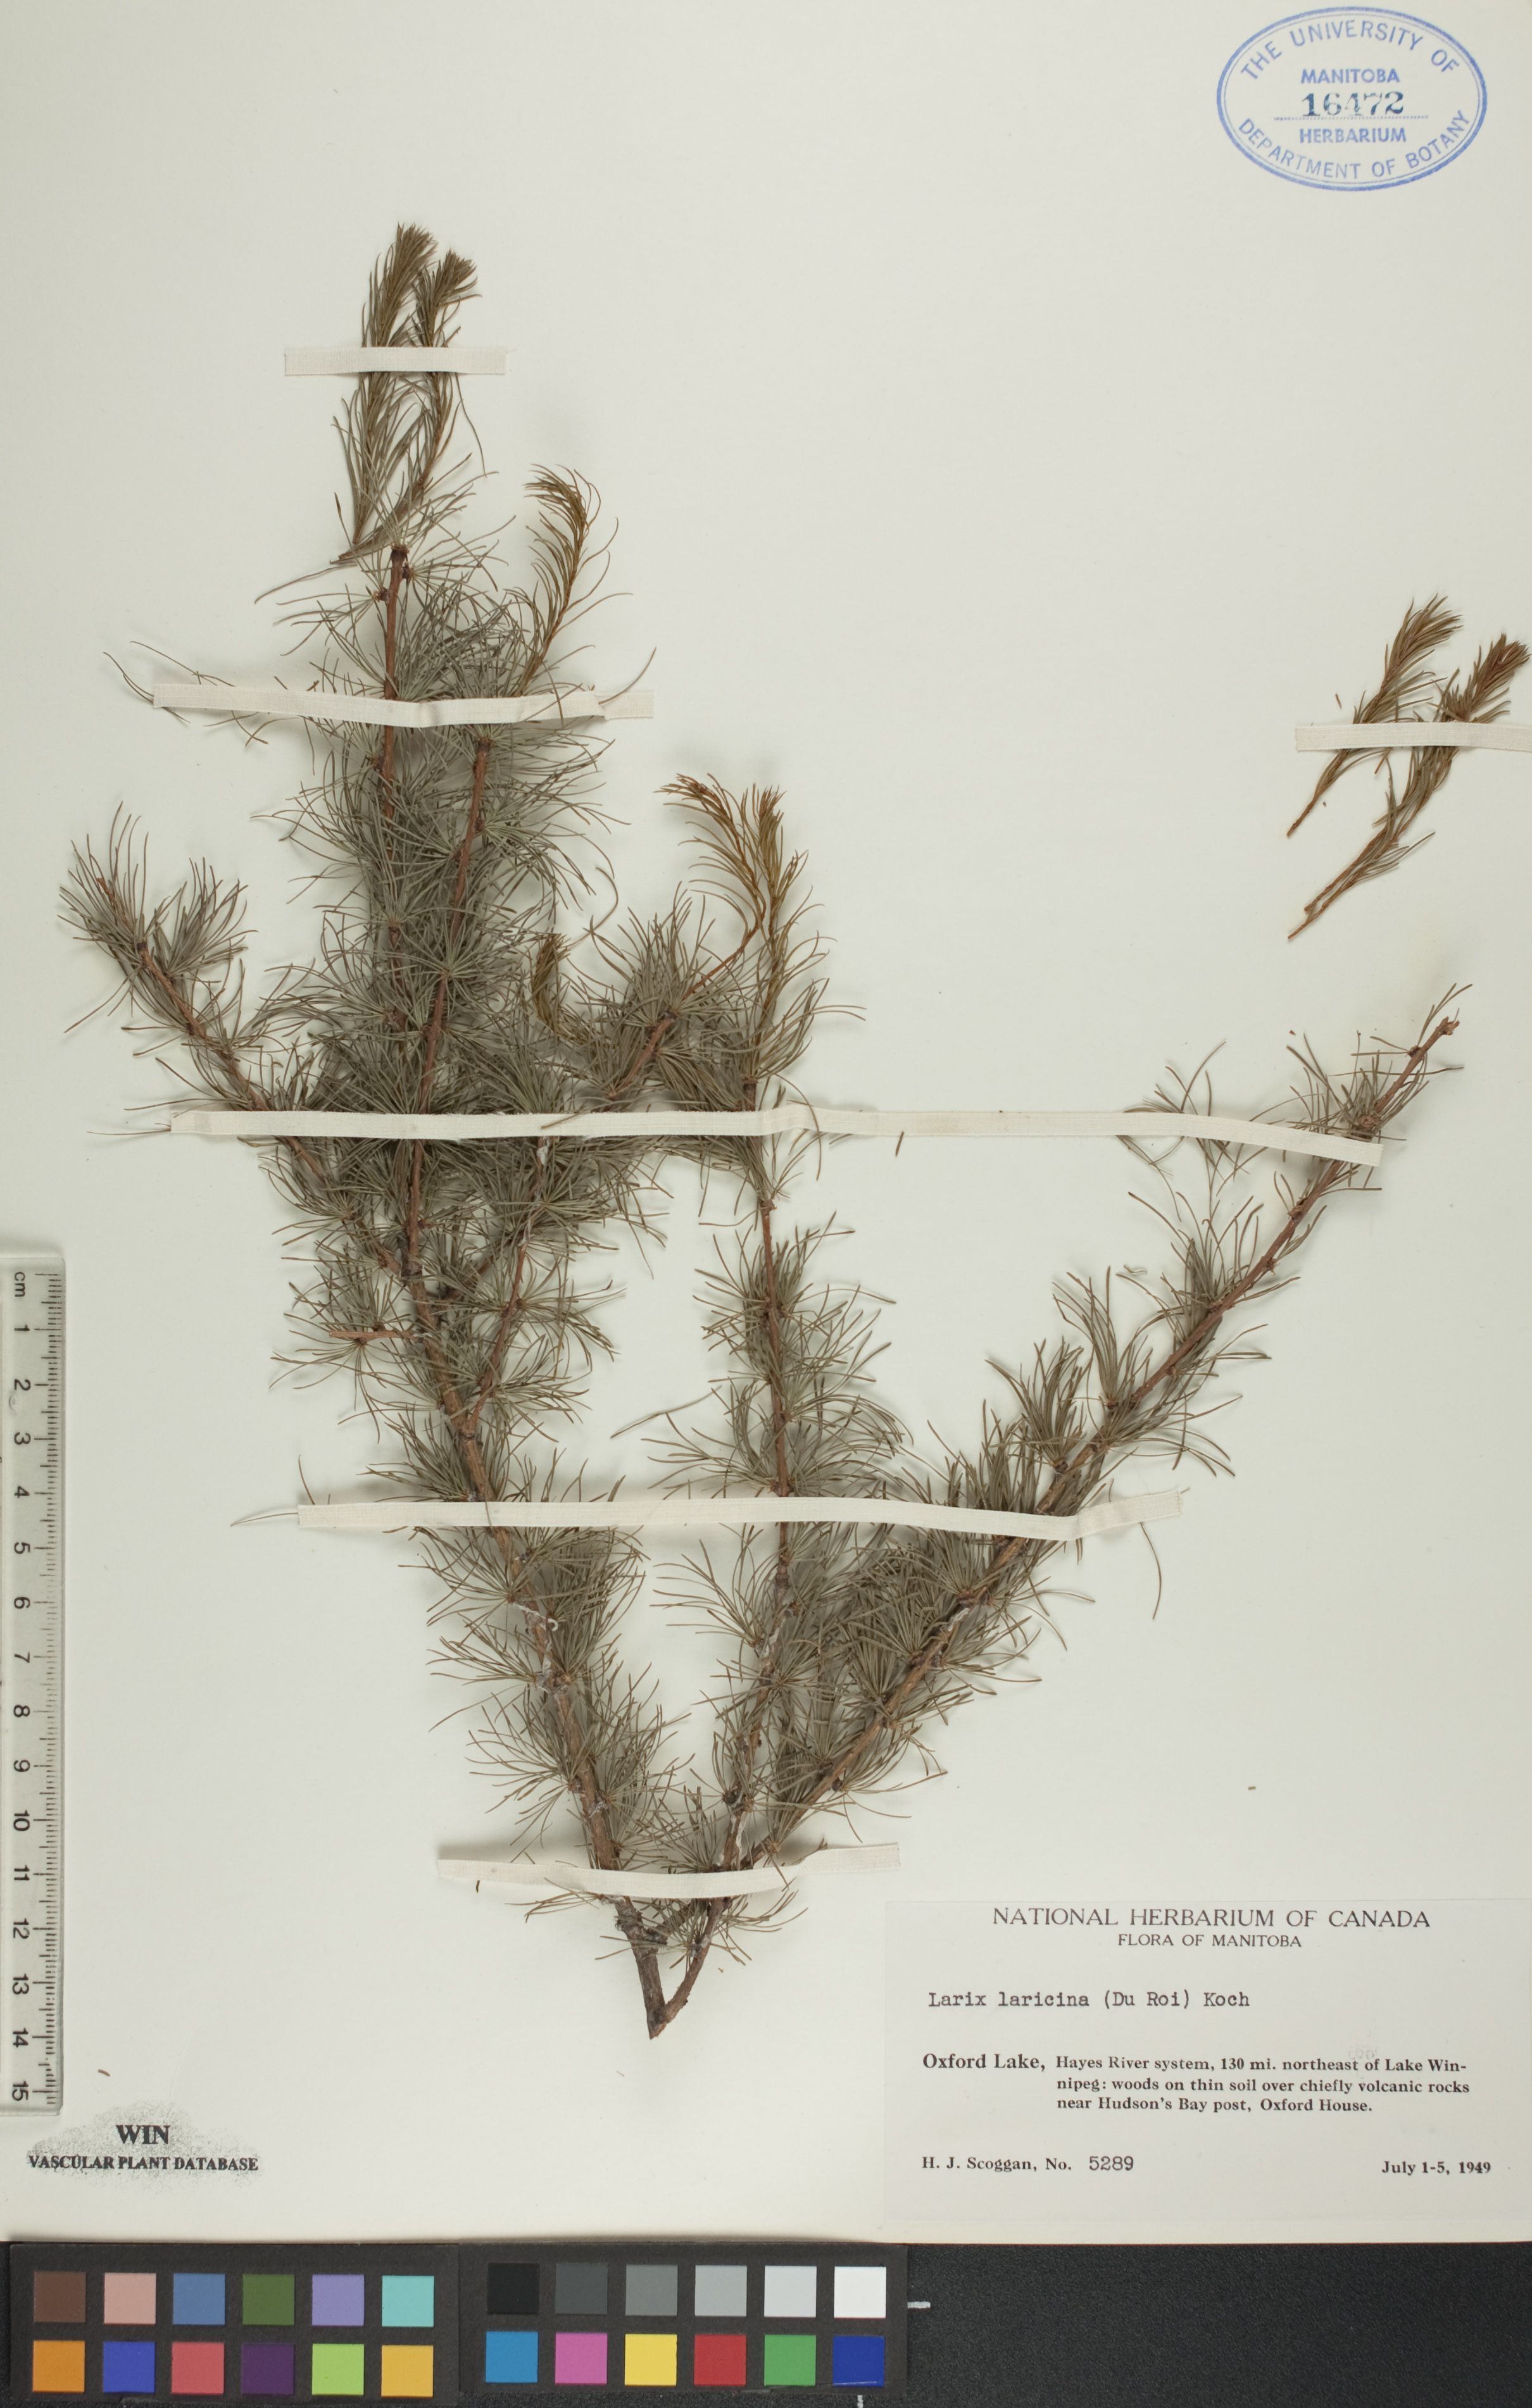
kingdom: Plantae
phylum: Tracheophyta
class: Pinopsida
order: Pinales
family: Pinaceae
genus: Larix
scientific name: Larix laricina
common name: American larch
